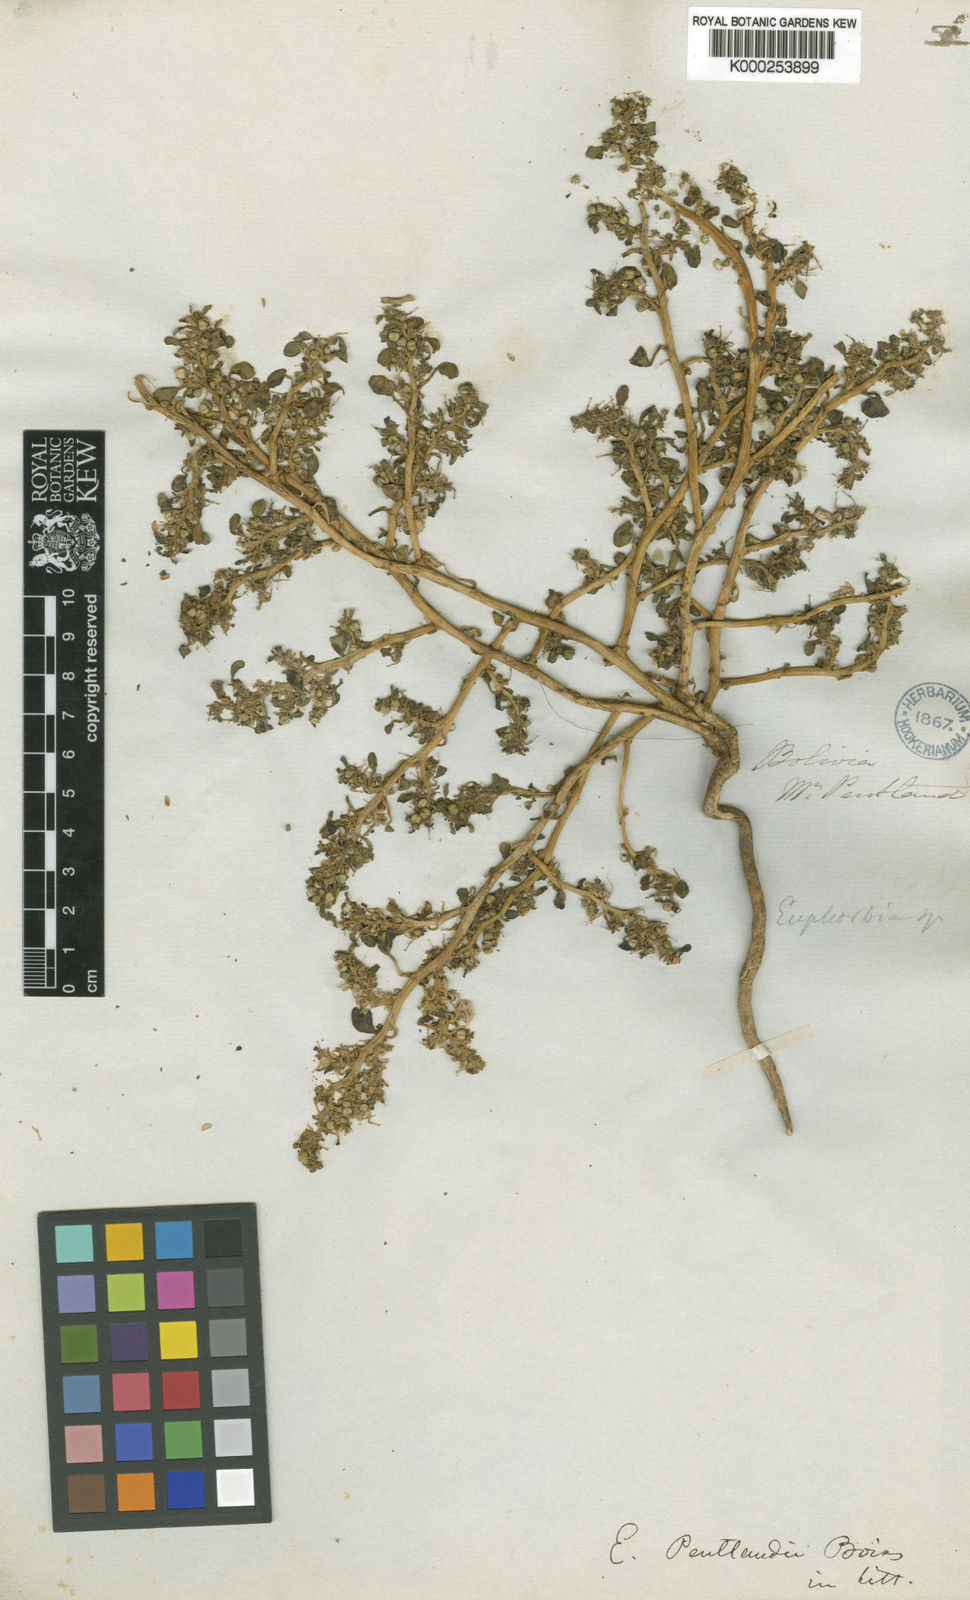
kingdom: Plantae
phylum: Tracheophyta
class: Magnoliopsida
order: Malpighiales
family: Euphorbiaceae
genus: Euphorbia
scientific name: Euphorbia pentlandii
